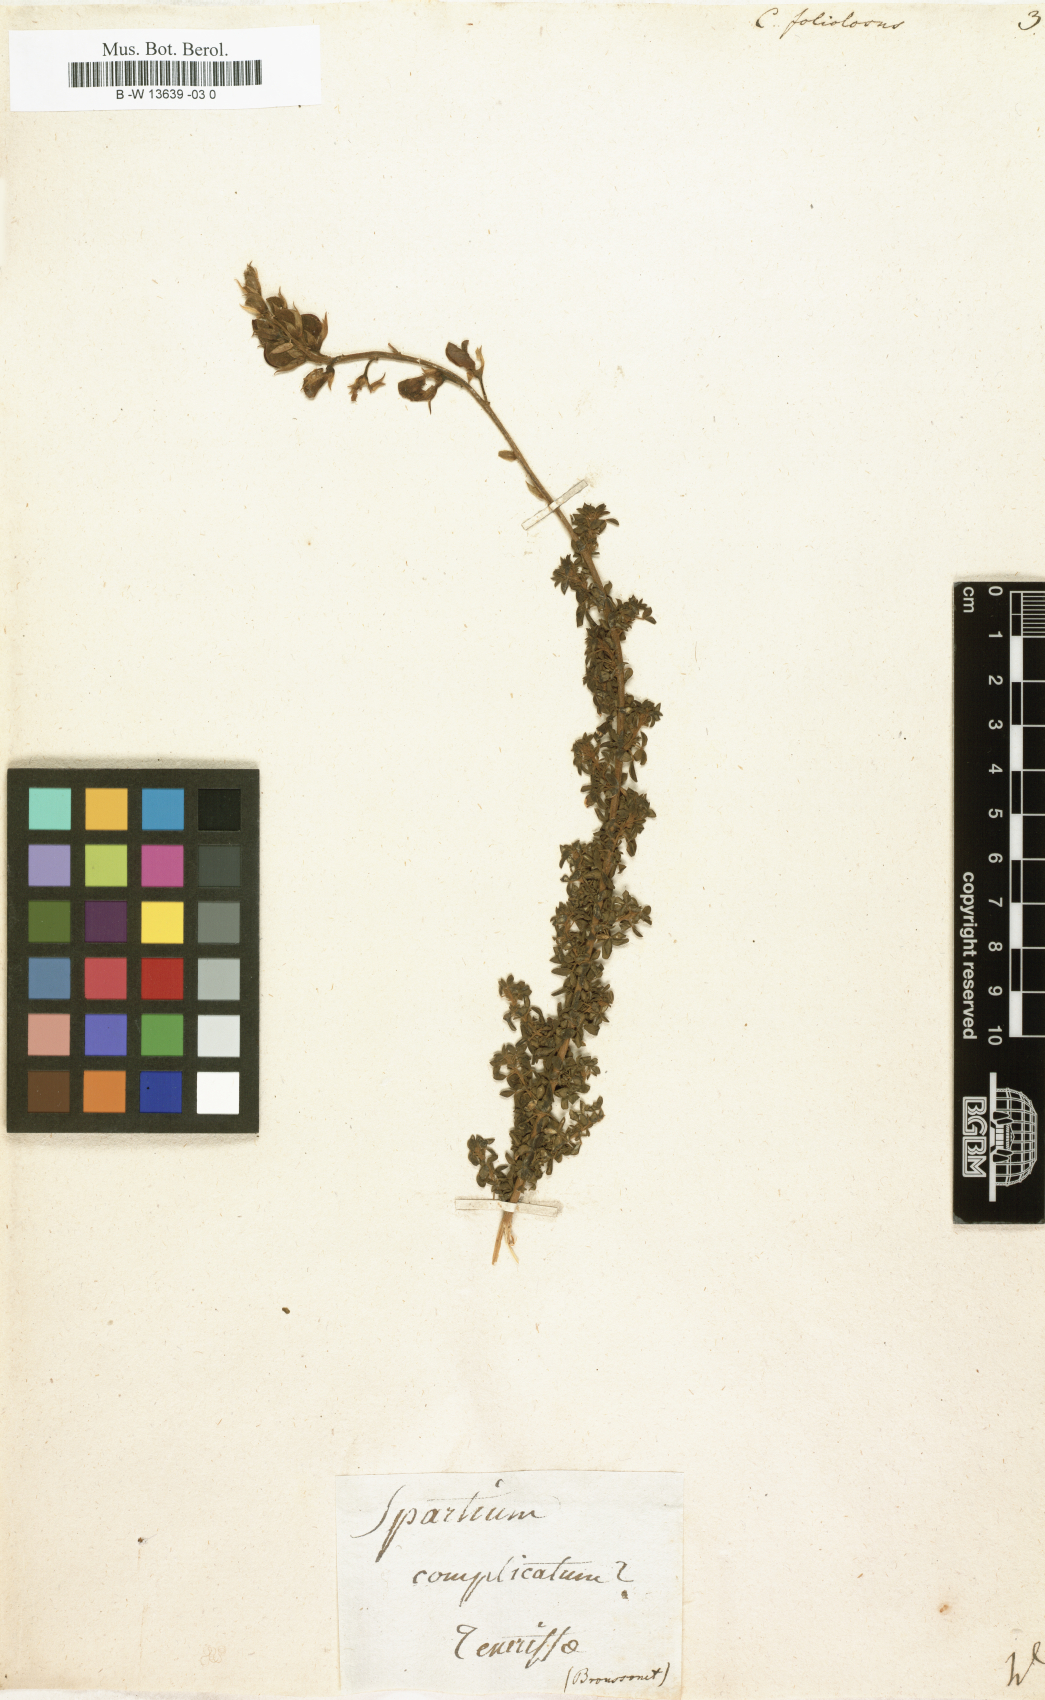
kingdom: Plantae
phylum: Tracheophyta
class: Magnoliopsida
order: Fabales
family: Fabaceae
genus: Adenocarpus
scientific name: Adenocarpus foliolosus
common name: Canary island flatpod
